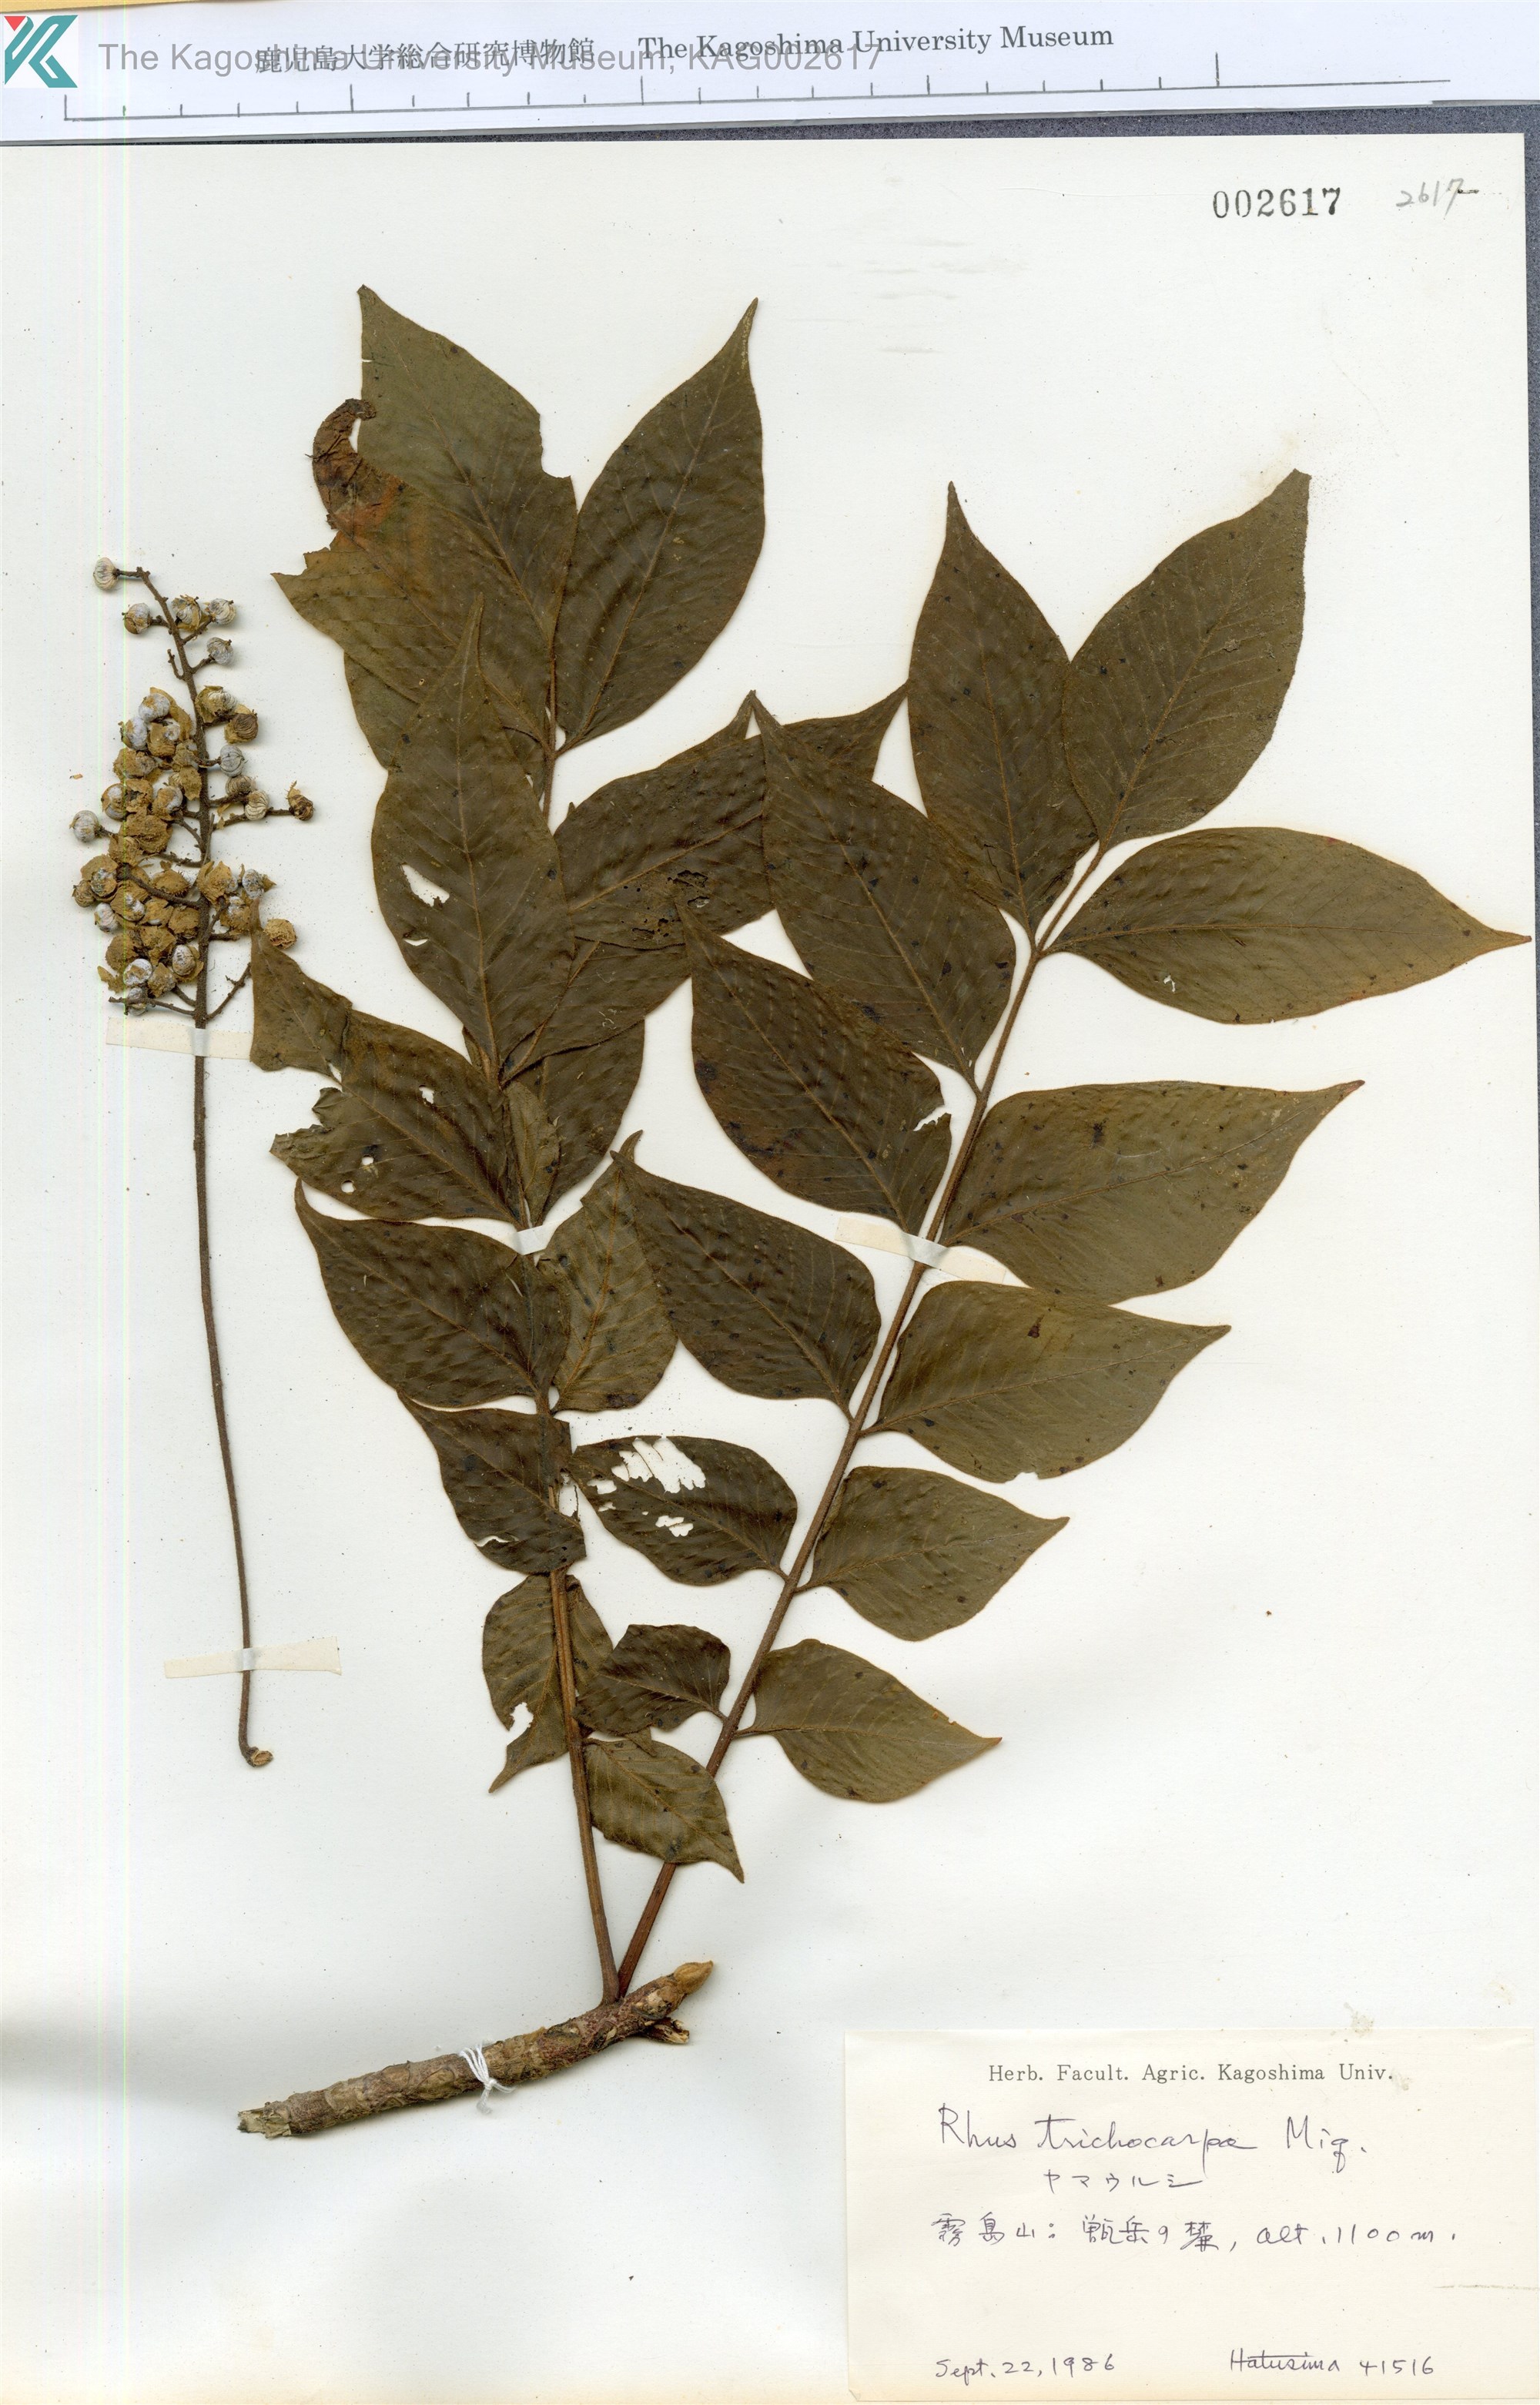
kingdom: Plantae
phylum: Tracheophyta
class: Magnoliopsida
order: Sapindales
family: Anacardiaceae
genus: Toxicodendron
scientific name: Toxicodendron trichocarpum
